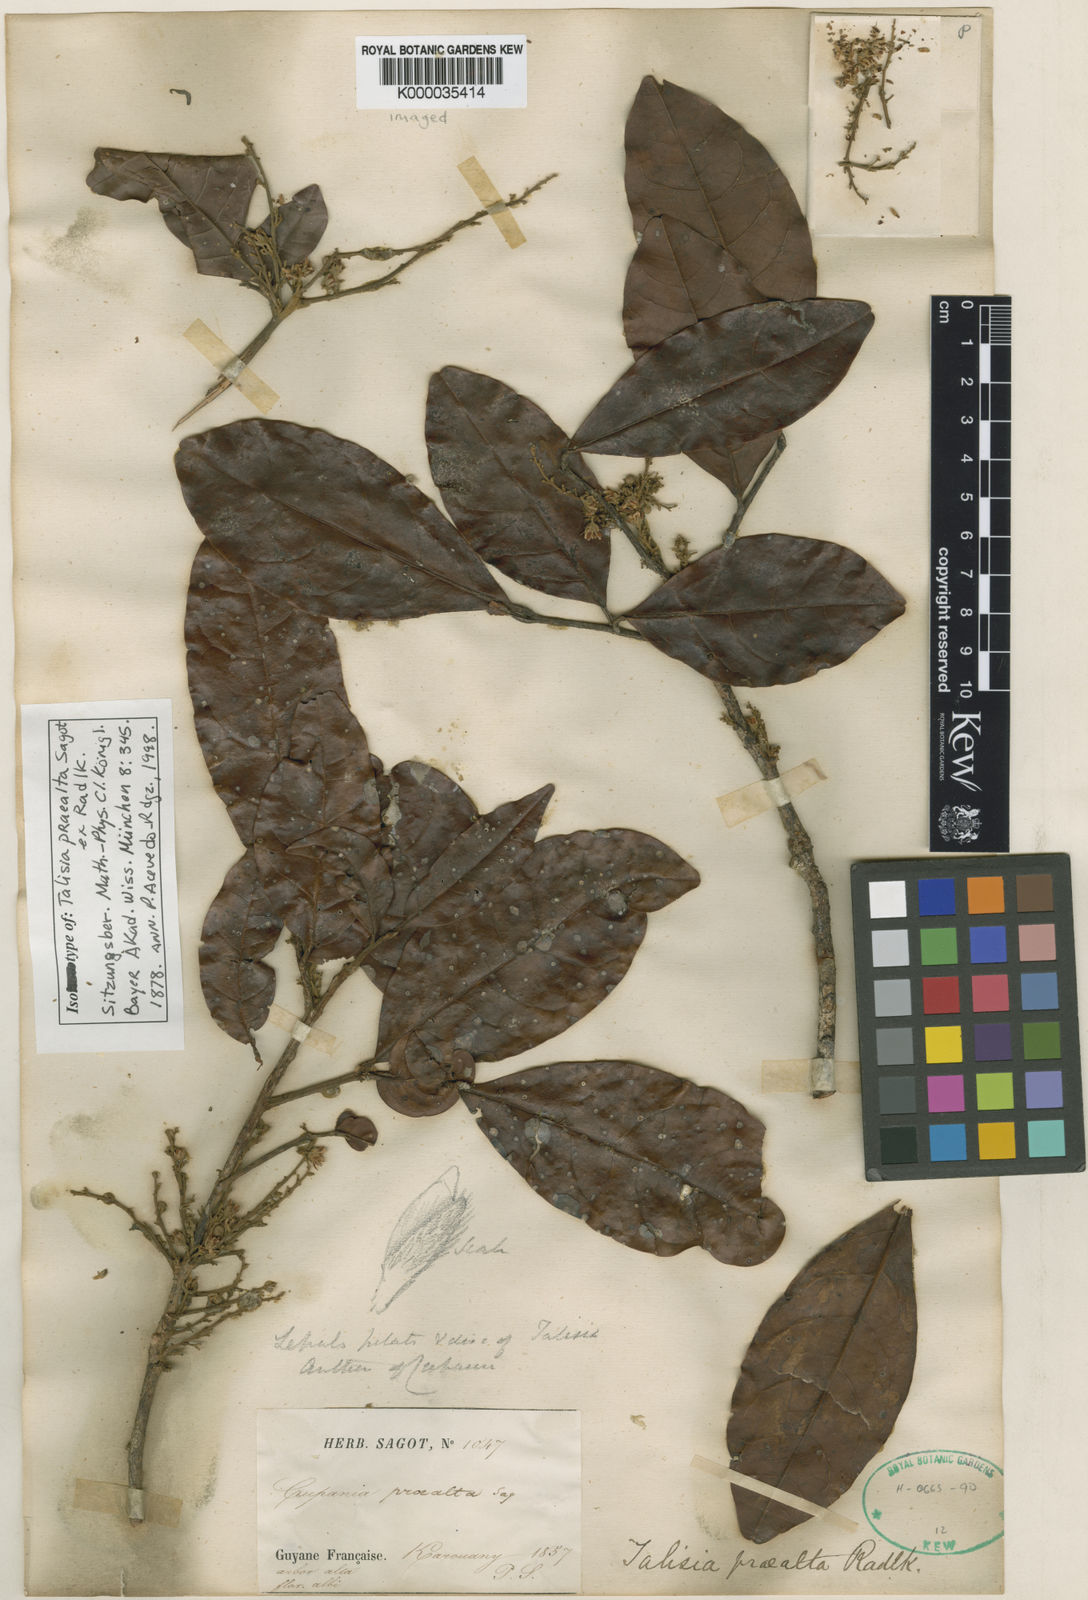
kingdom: Plantae
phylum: Tracheophyta
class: Magnoliopsida
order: Sapindales
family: Sapindaceae
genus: Talisia
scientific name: Talisia praealta
